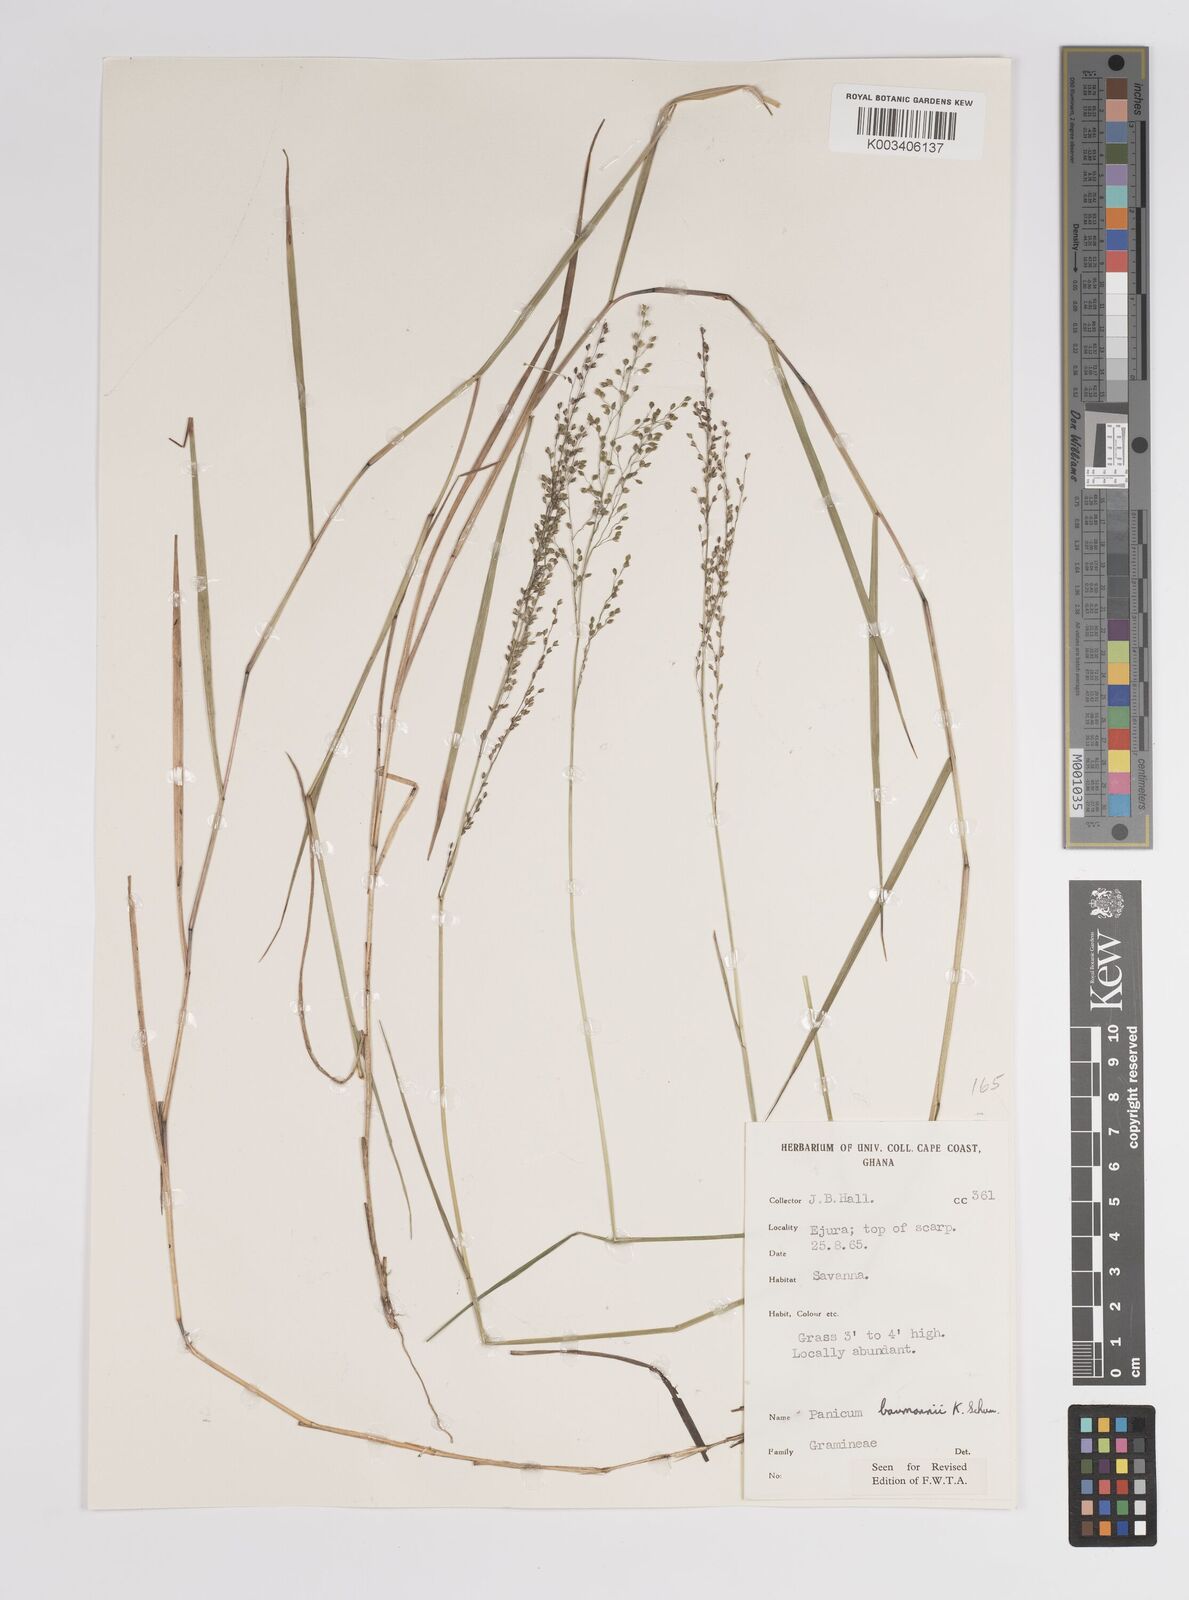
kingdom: Plantae
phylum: Tracheophyta
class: Liliopsida
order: Poales
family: Poaceae
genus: Trichanthecium
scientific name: Trichanthecium nervatum
